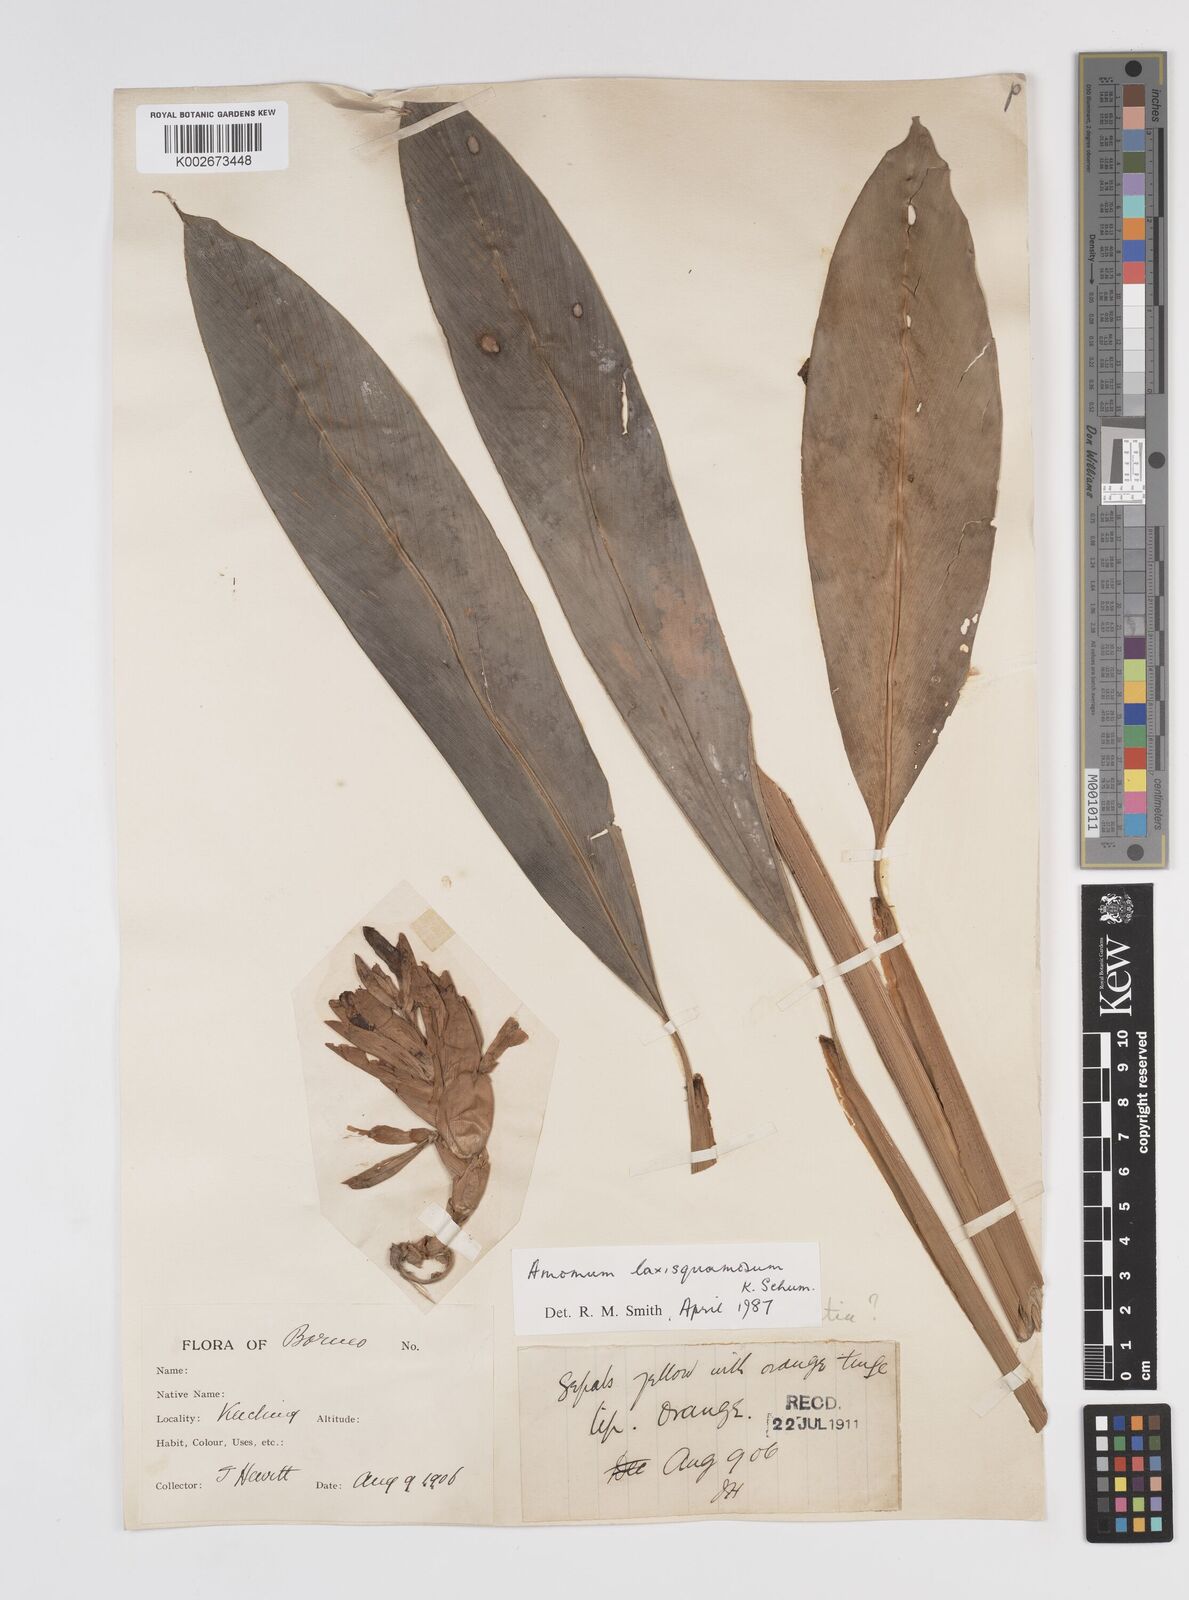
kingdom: Plantae
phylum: Tracheophyta
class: Liliopsida
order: Zingiberales
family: Zingiberaceae
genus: Sundamomum
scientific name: Sundamomum laxesquamosum
